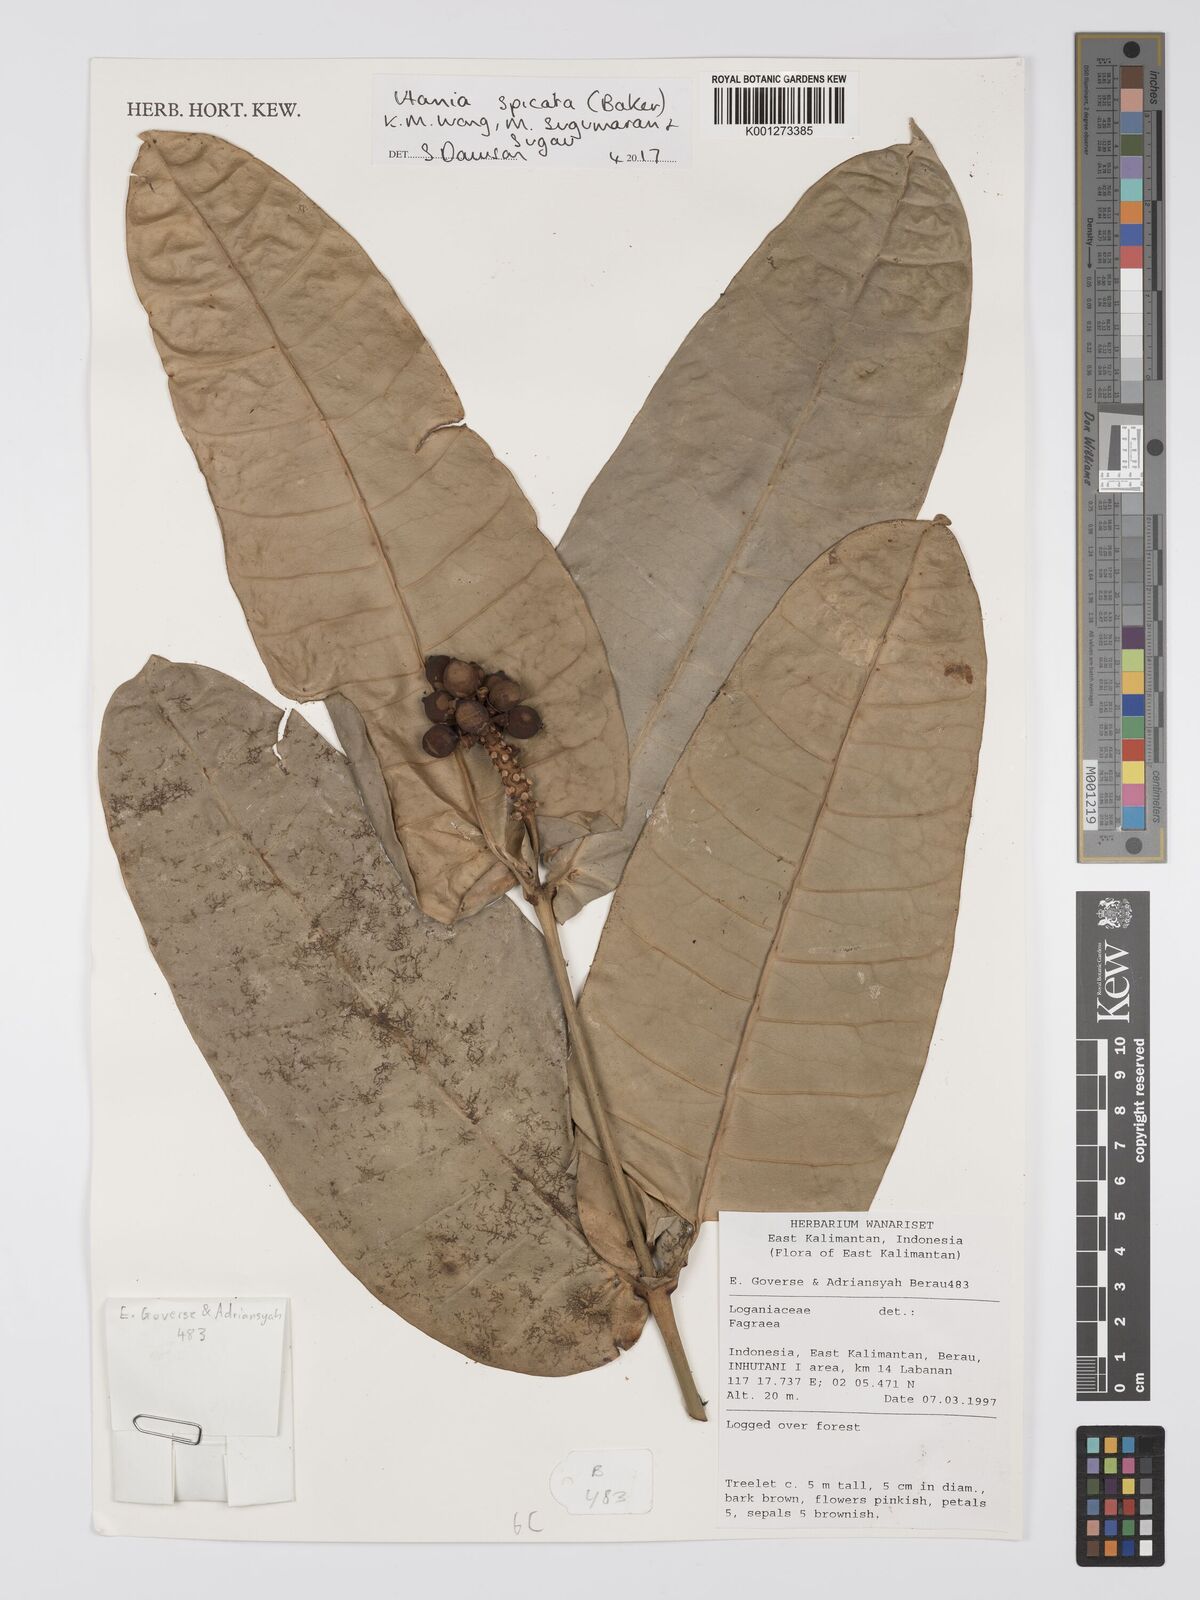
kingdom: Plantae
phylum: Tracheophyta
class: Magnoliopsida
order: Gentianales
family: Gentianaceae
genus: Utania
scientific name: Utania
